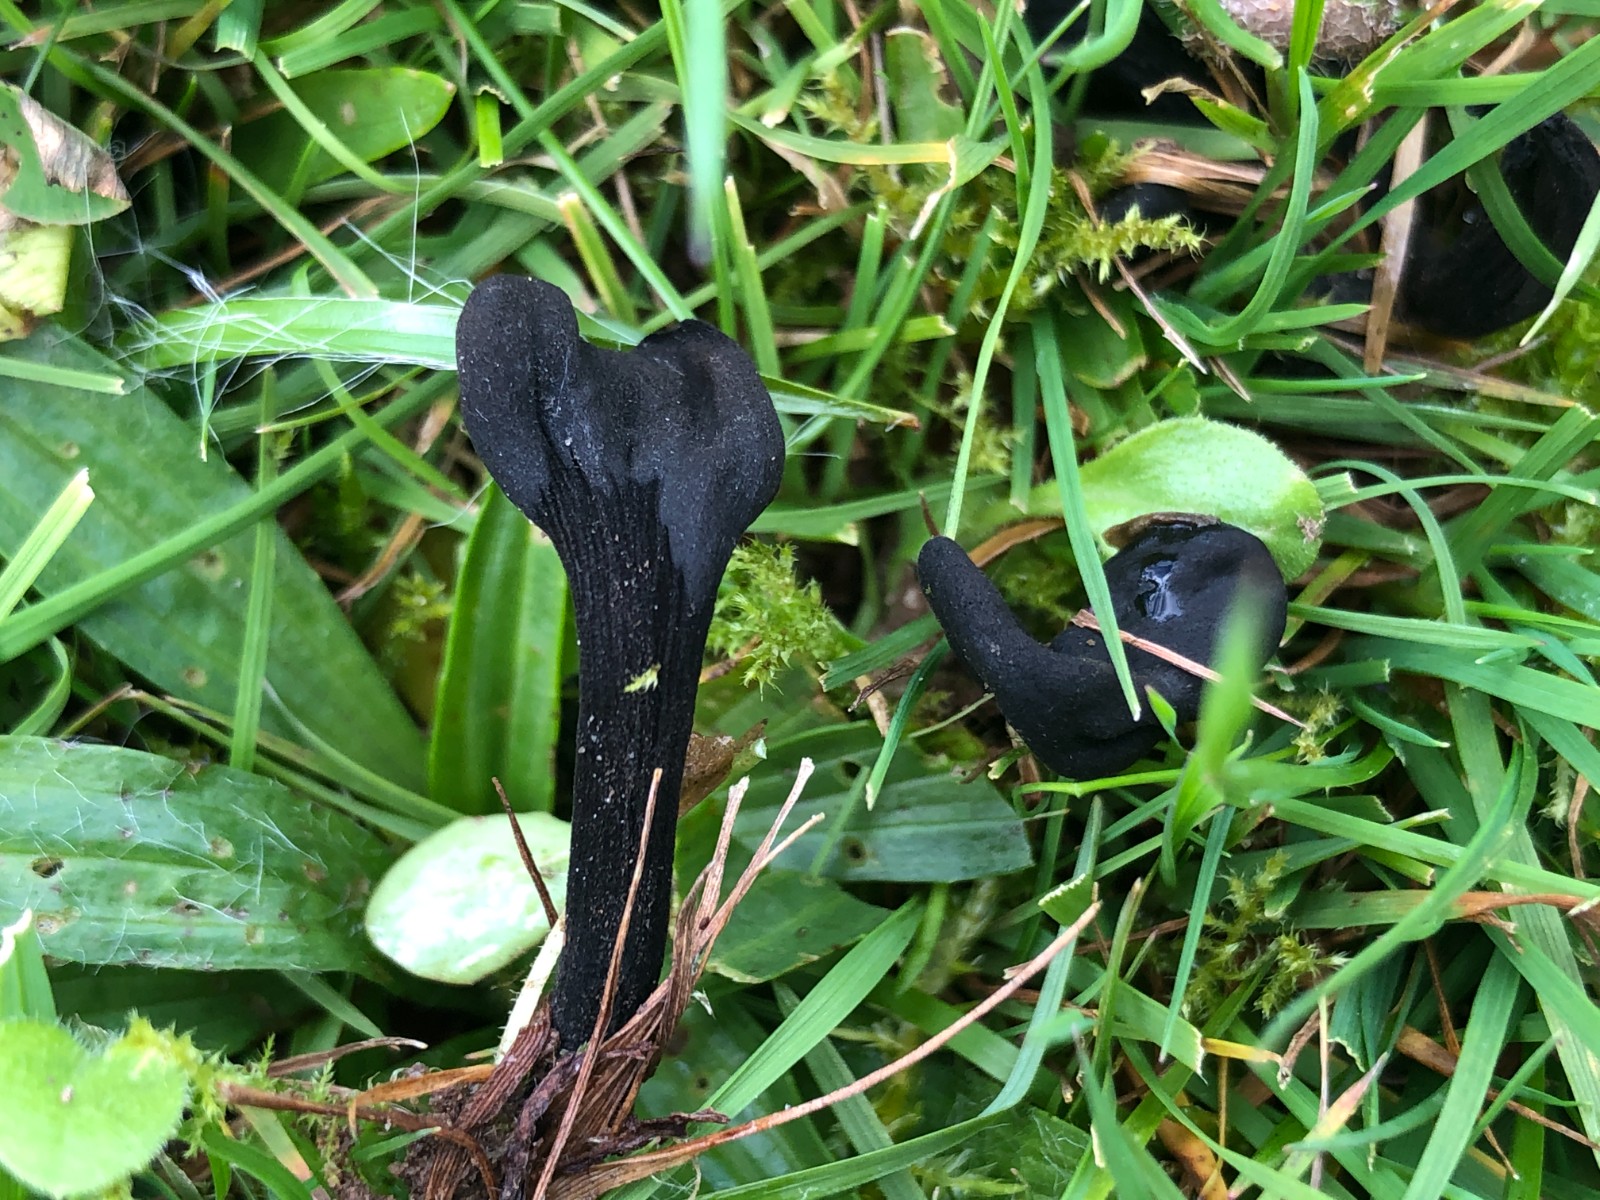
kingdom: Fungi
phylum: Ascomycota
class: Geoglossomycetes
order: Geoglossales
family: Geoglossaceae
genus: Trichoglossum
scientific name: Trichoglossum walteri
